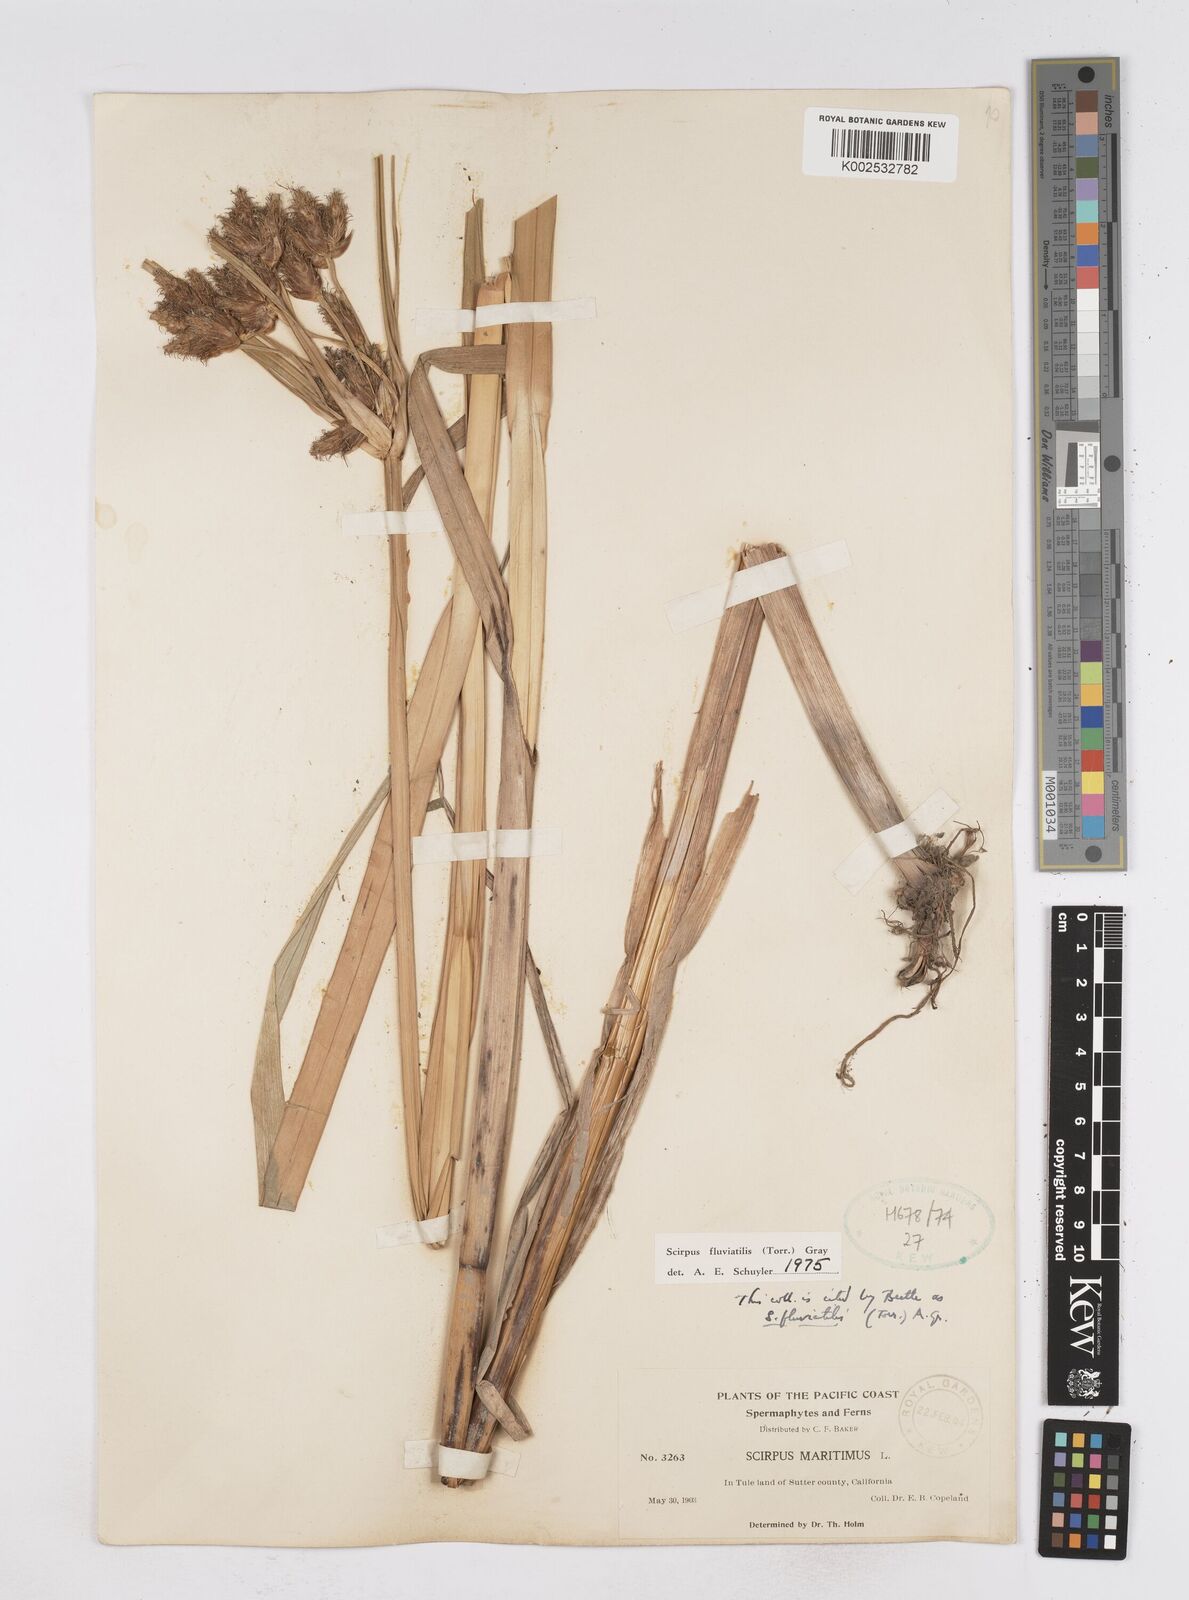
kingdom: Plantae
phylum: Tracheophyta
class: Liliopsida
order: Poales
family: Cyperaceae
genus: Bolboschoenus
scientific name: Bolboschoenus
